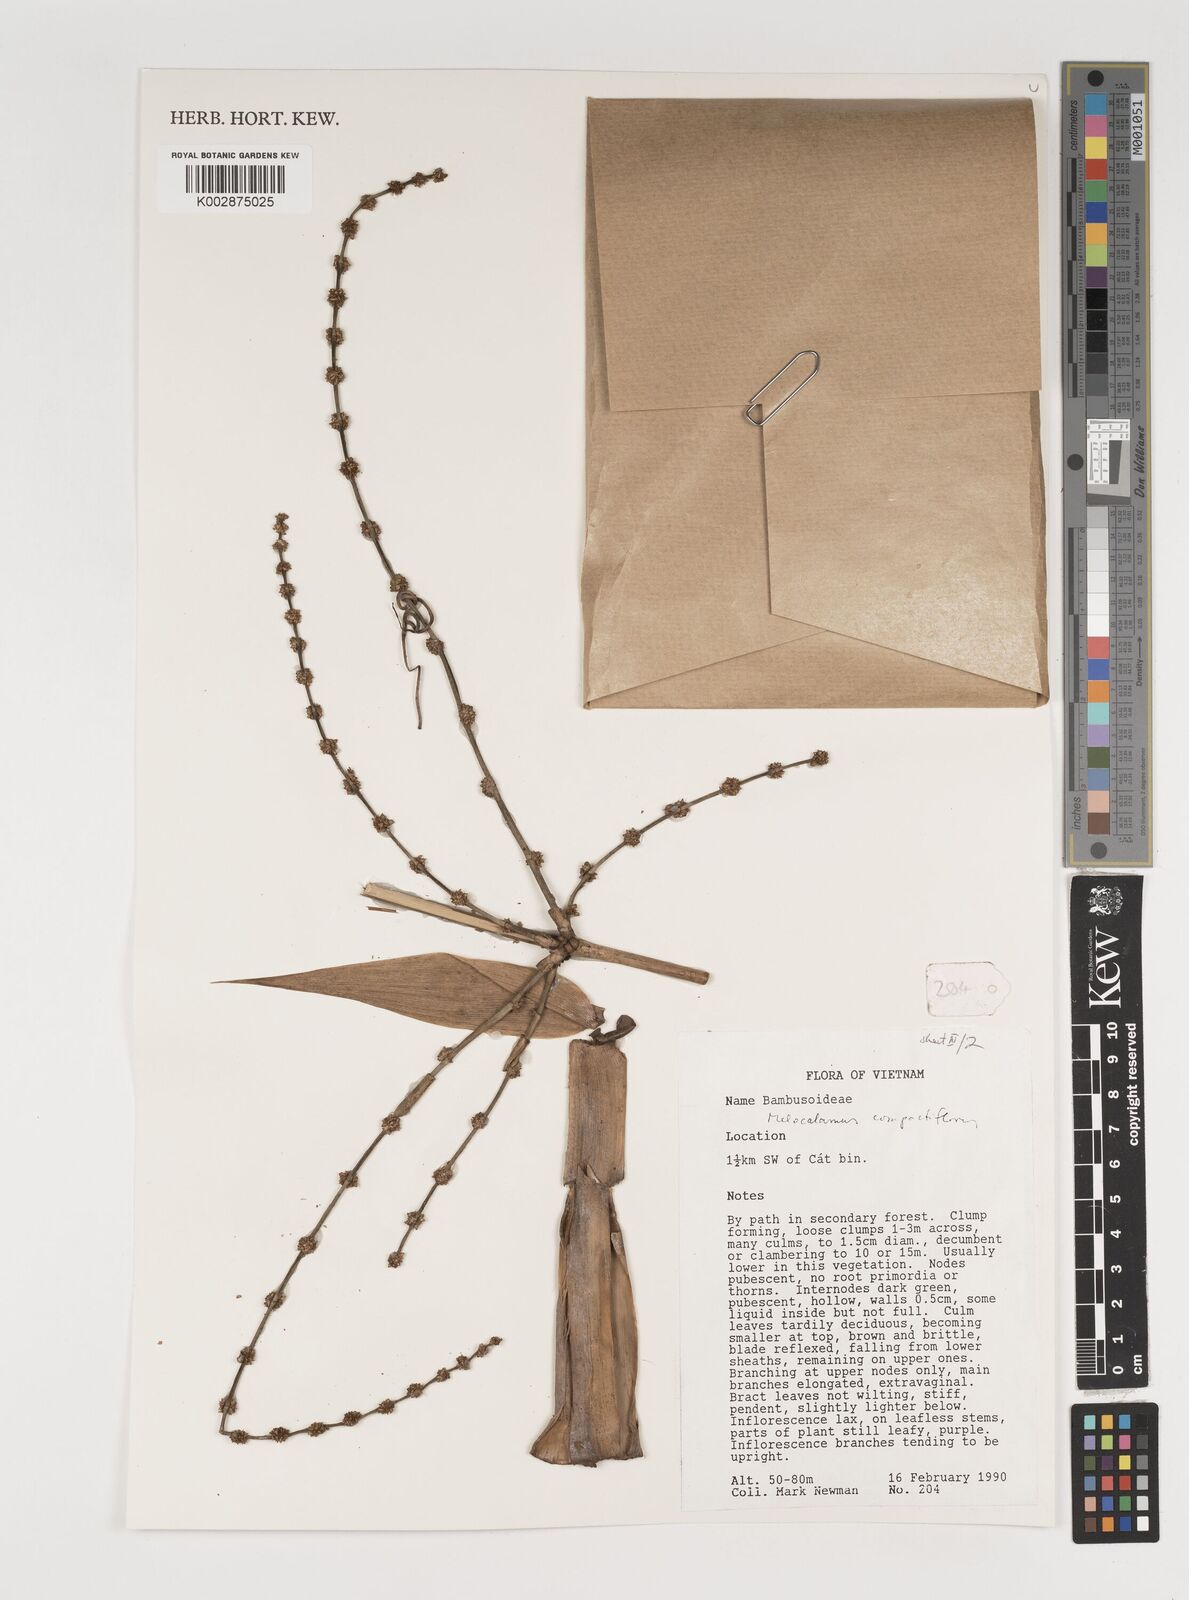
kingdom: Plantae
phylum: Tracheophyta
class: Liliopsida
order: Poales
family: Poaceae
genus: Melocalamus
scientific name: Melocalamus
